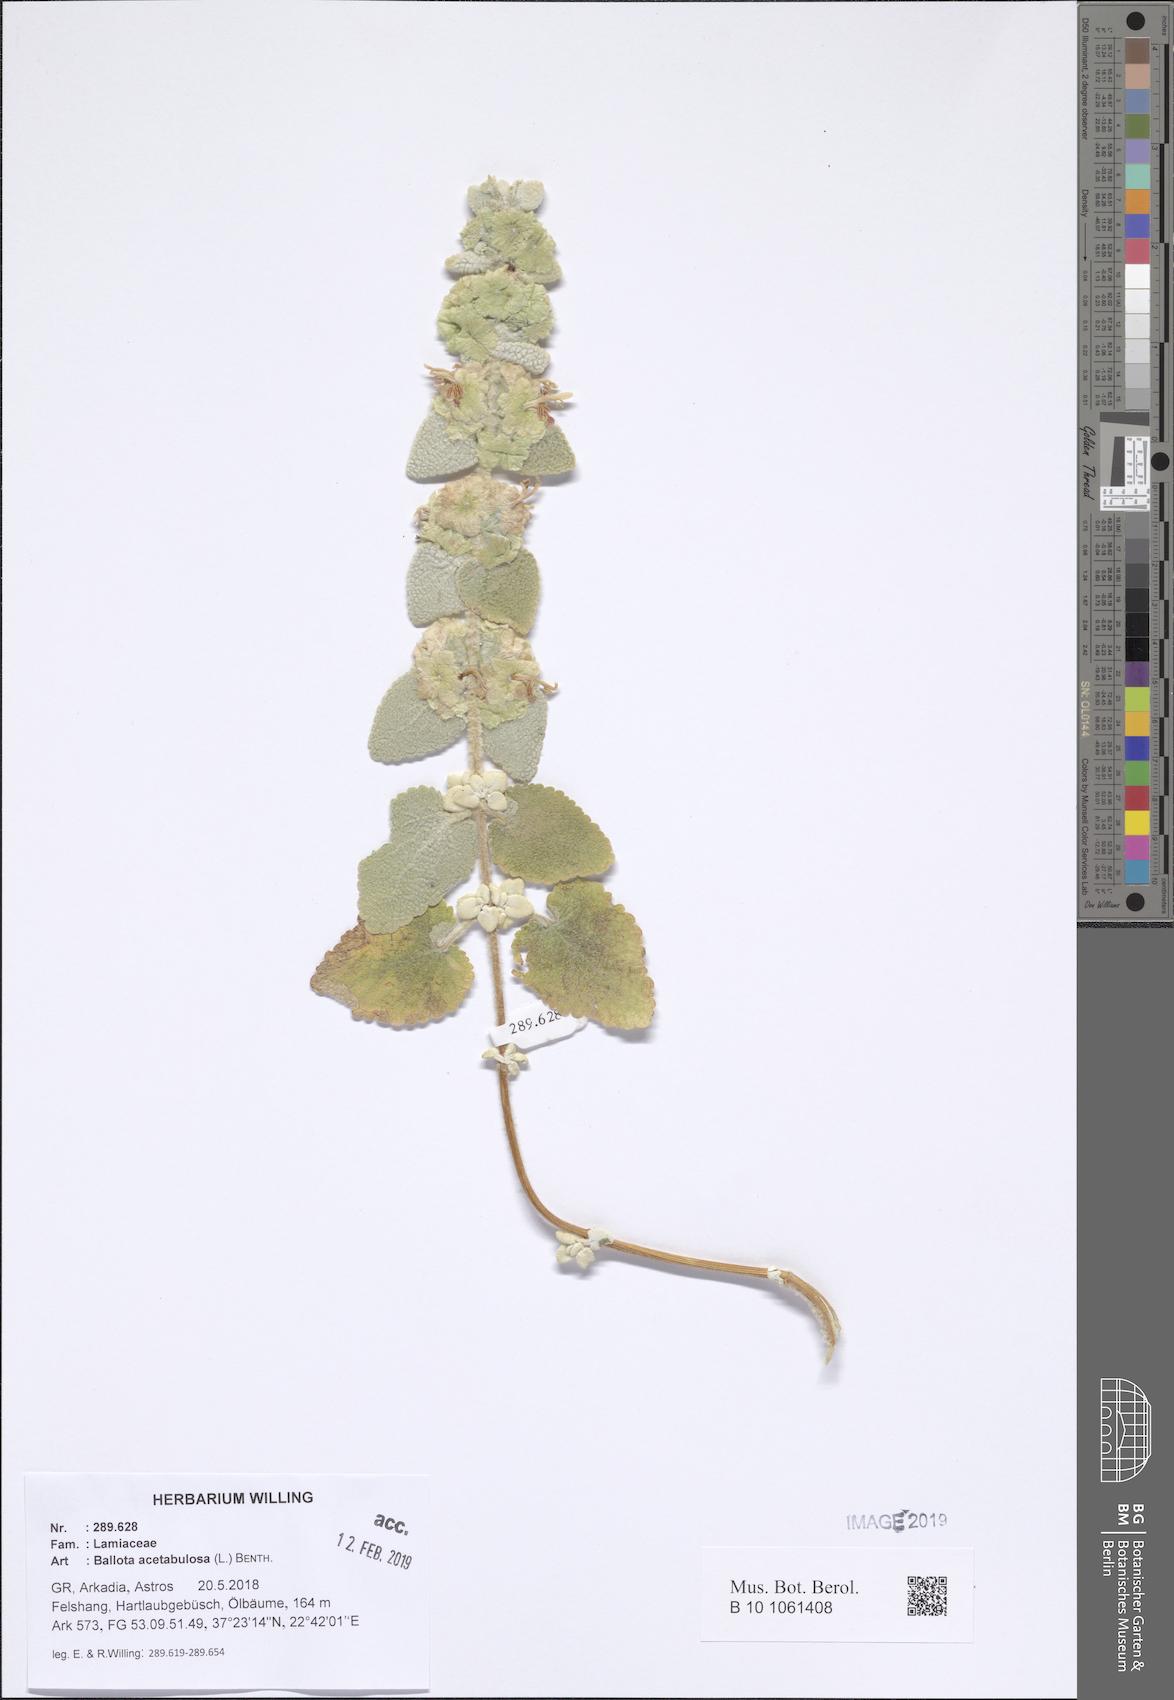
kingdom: Plantae
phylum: Tracheophyta
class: Magnoliopsida
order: Lamiales
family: Lamiaceae
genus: Pseudodictamnus
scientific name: Pseudodictamnus acetabulosus
